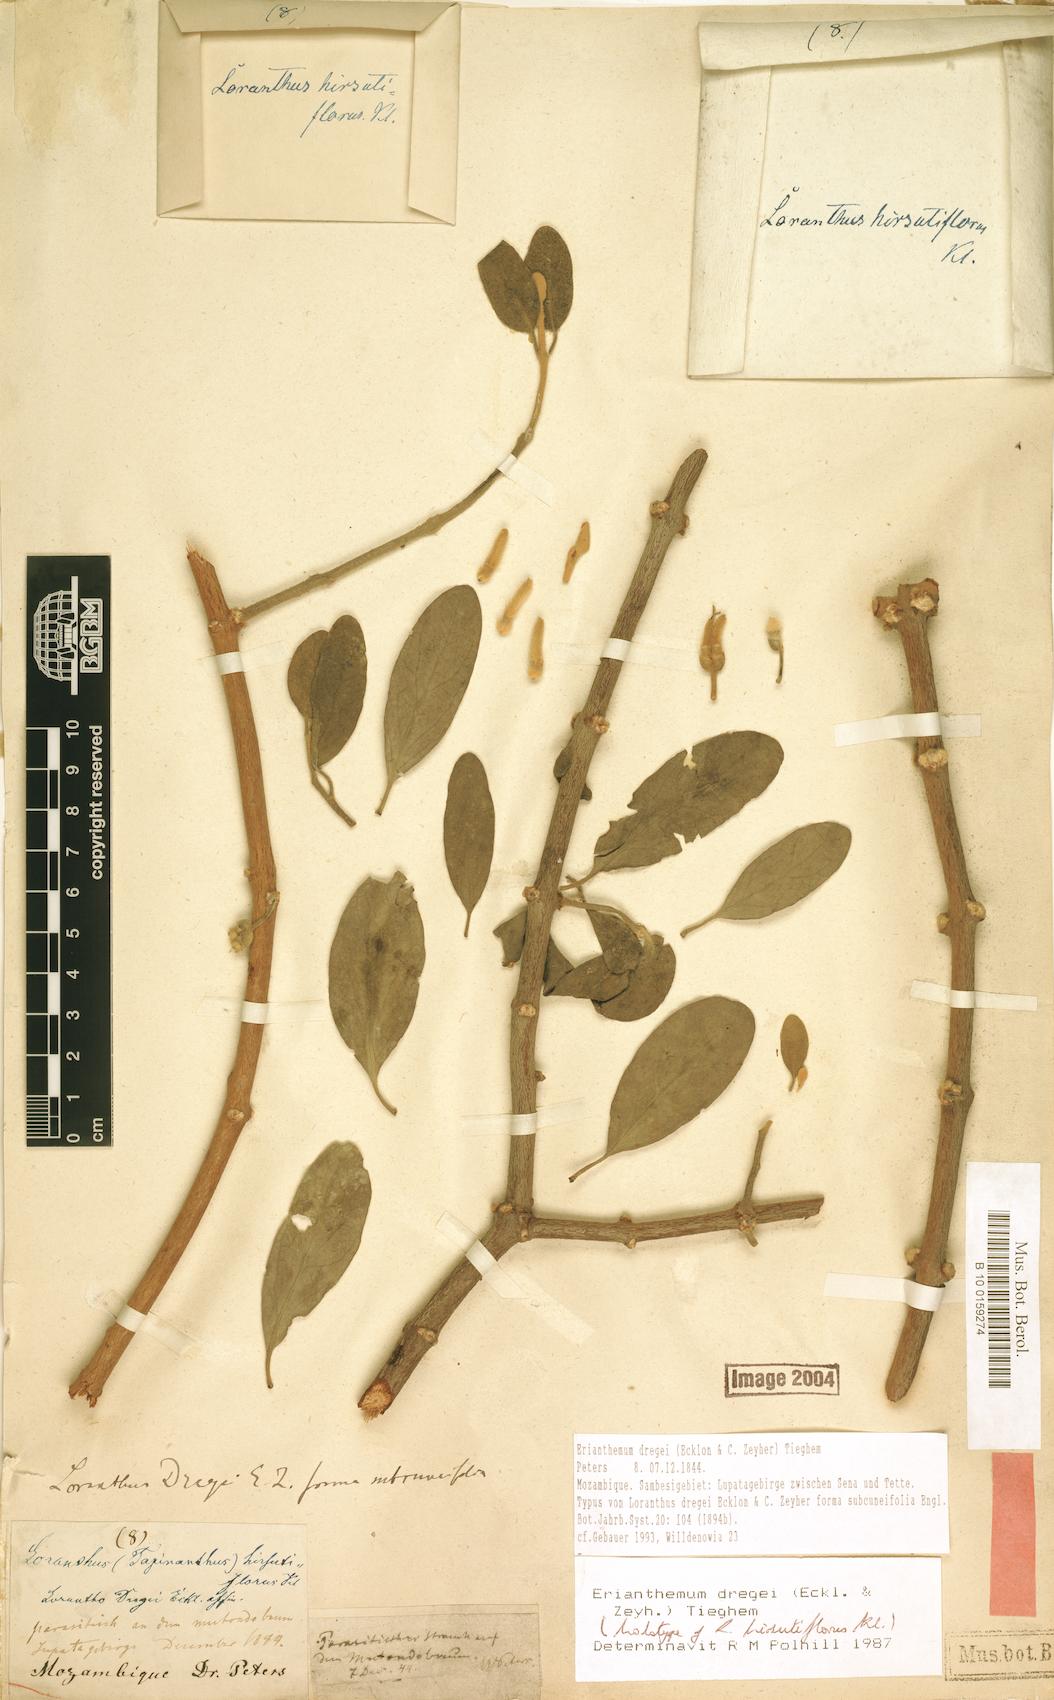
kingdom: Plantae
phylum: Tracheophyta
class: Magnoliopsida
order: Santalales
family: Loranthaceae
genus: Erianthemum
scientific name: Erianthemum dregei
